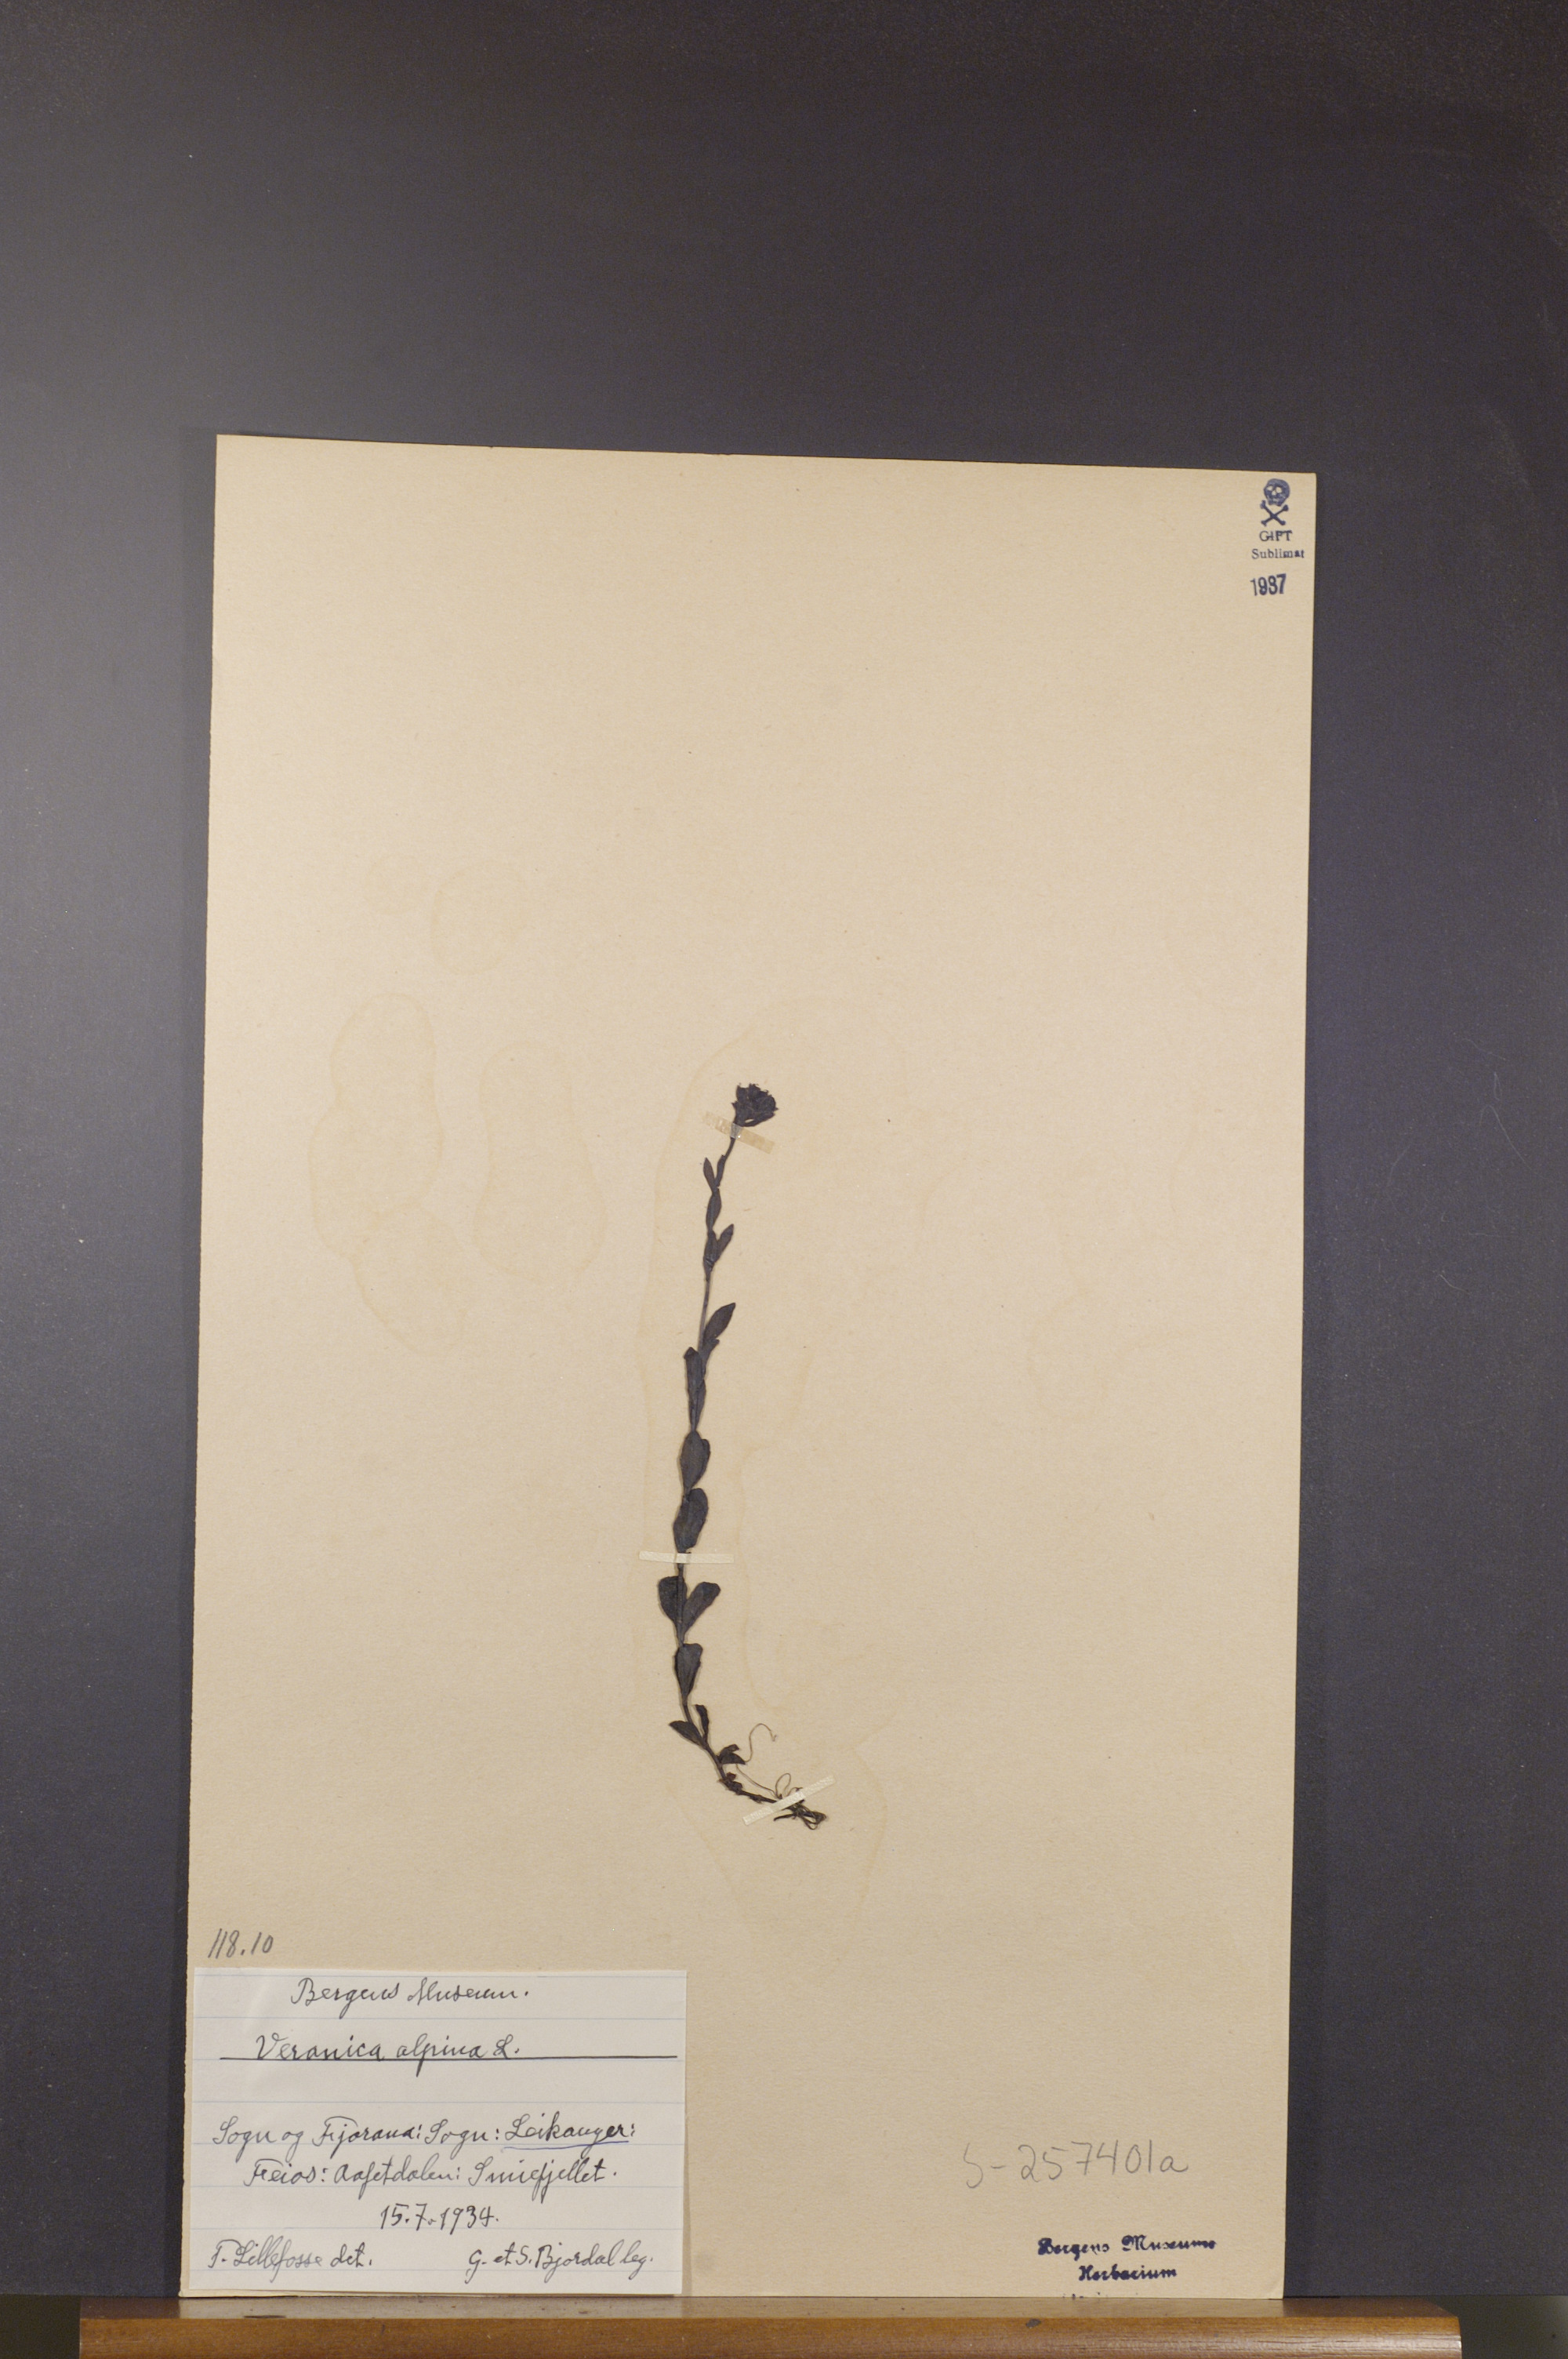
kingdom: Plantae
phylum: Tracheophyta
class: Magnoliopsida
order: Lamiales
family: Plantaginaceae
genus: Veronica
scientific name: Veronica alpina
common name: Alpine speedwell
